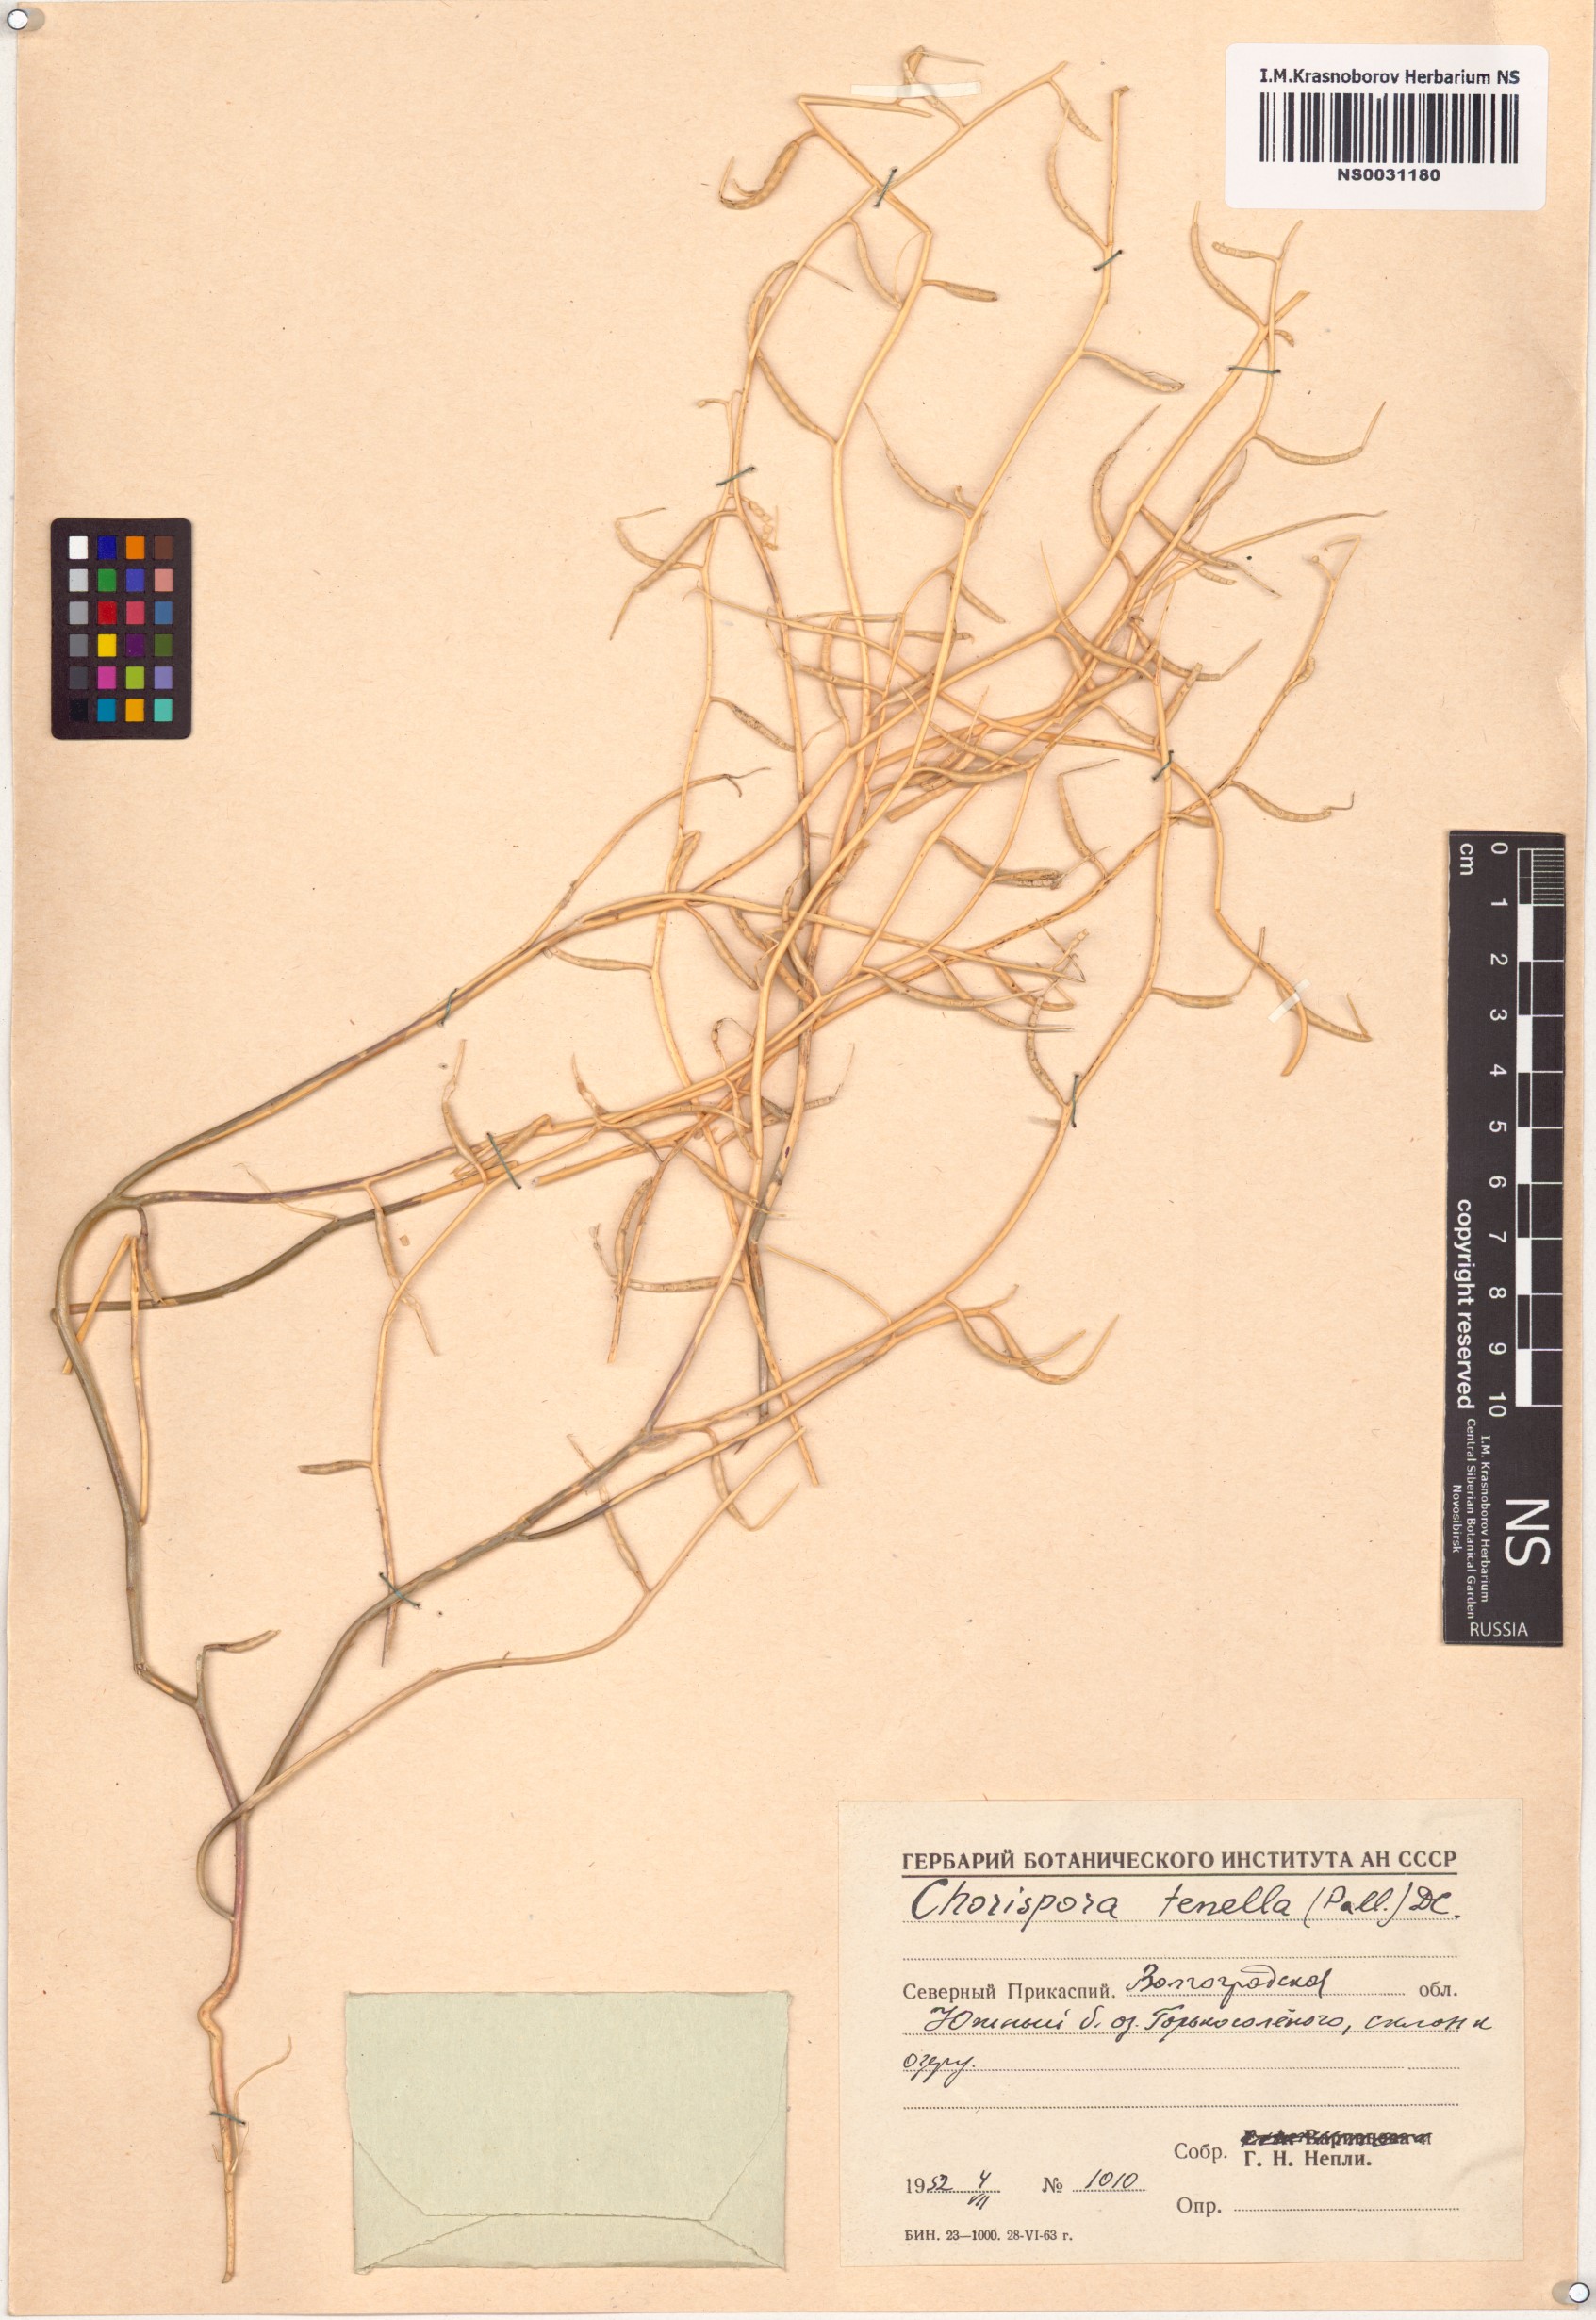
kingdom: Plantae
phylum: Tracheophyta
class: Magnoliopsida
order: Brassicales
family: Brassicaceae
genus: Chorispora
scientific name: Chorispora tenella
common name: Crossflower
